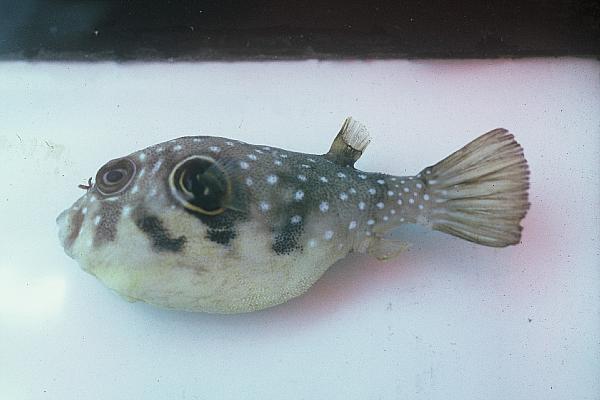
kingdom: Animalia
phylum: Chordata
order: Tetraodontiformes
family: Tetraodontidae
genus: Arothron
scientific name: Arothron hispidus
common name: Stripebelly puffer
